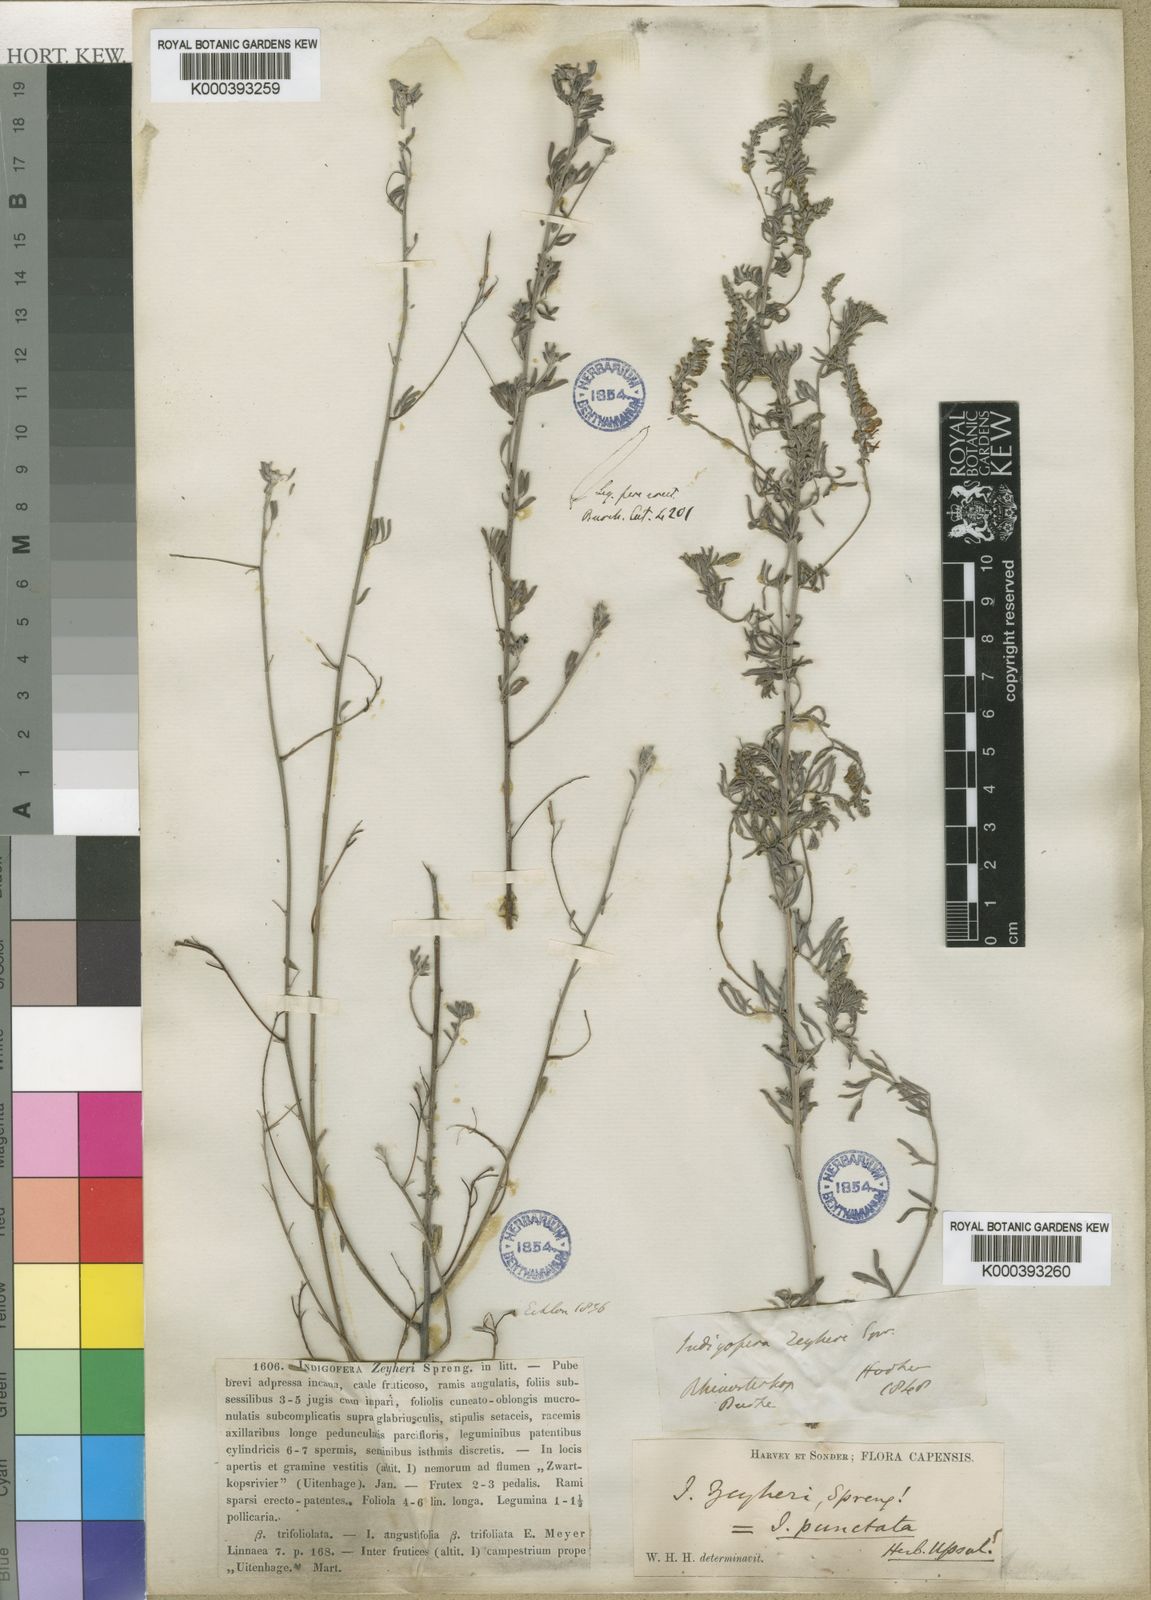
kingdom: Plantae
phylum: Tracheophyta
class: Magnoliopsida
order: Fabales
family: Fabaceae
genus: Indigofera
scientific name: Indigofera punctata
